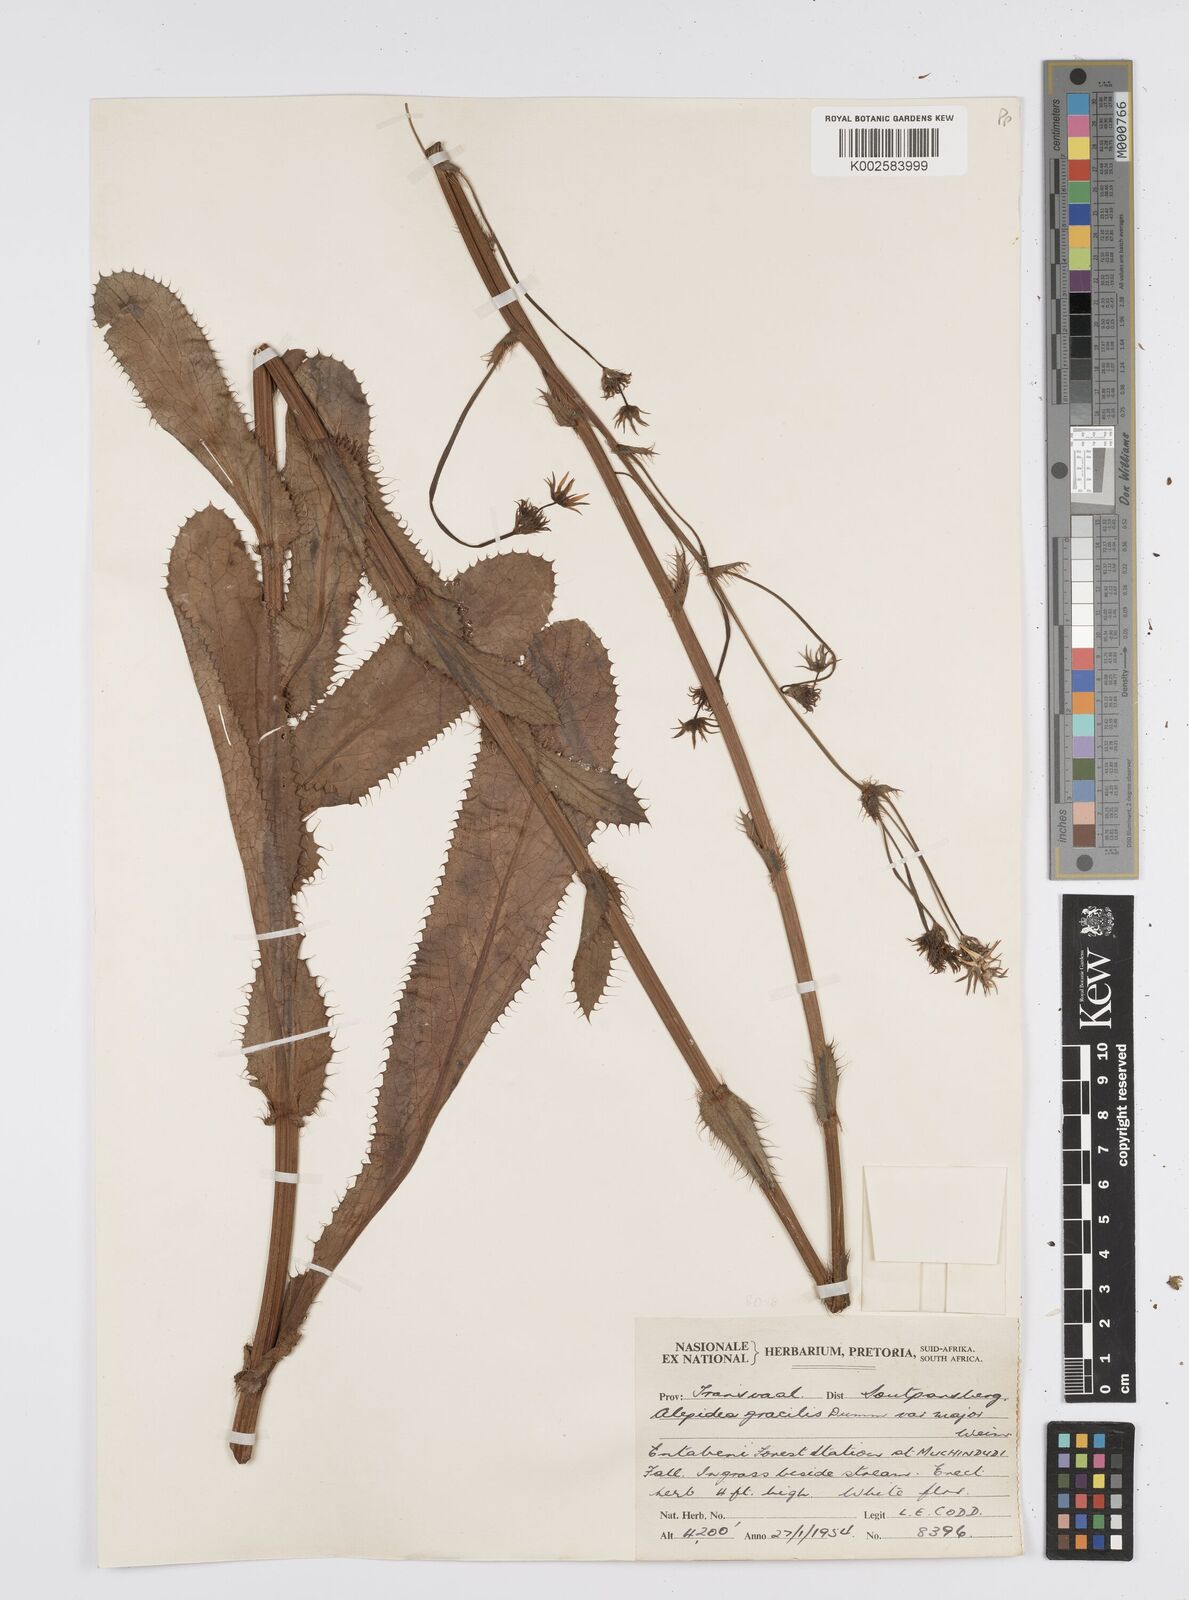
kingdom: Plantae
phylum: Tracheophyta
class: Magnoliopsida
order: Apiales
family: Apiaceae
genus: Alepidea
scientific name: Alepidea
